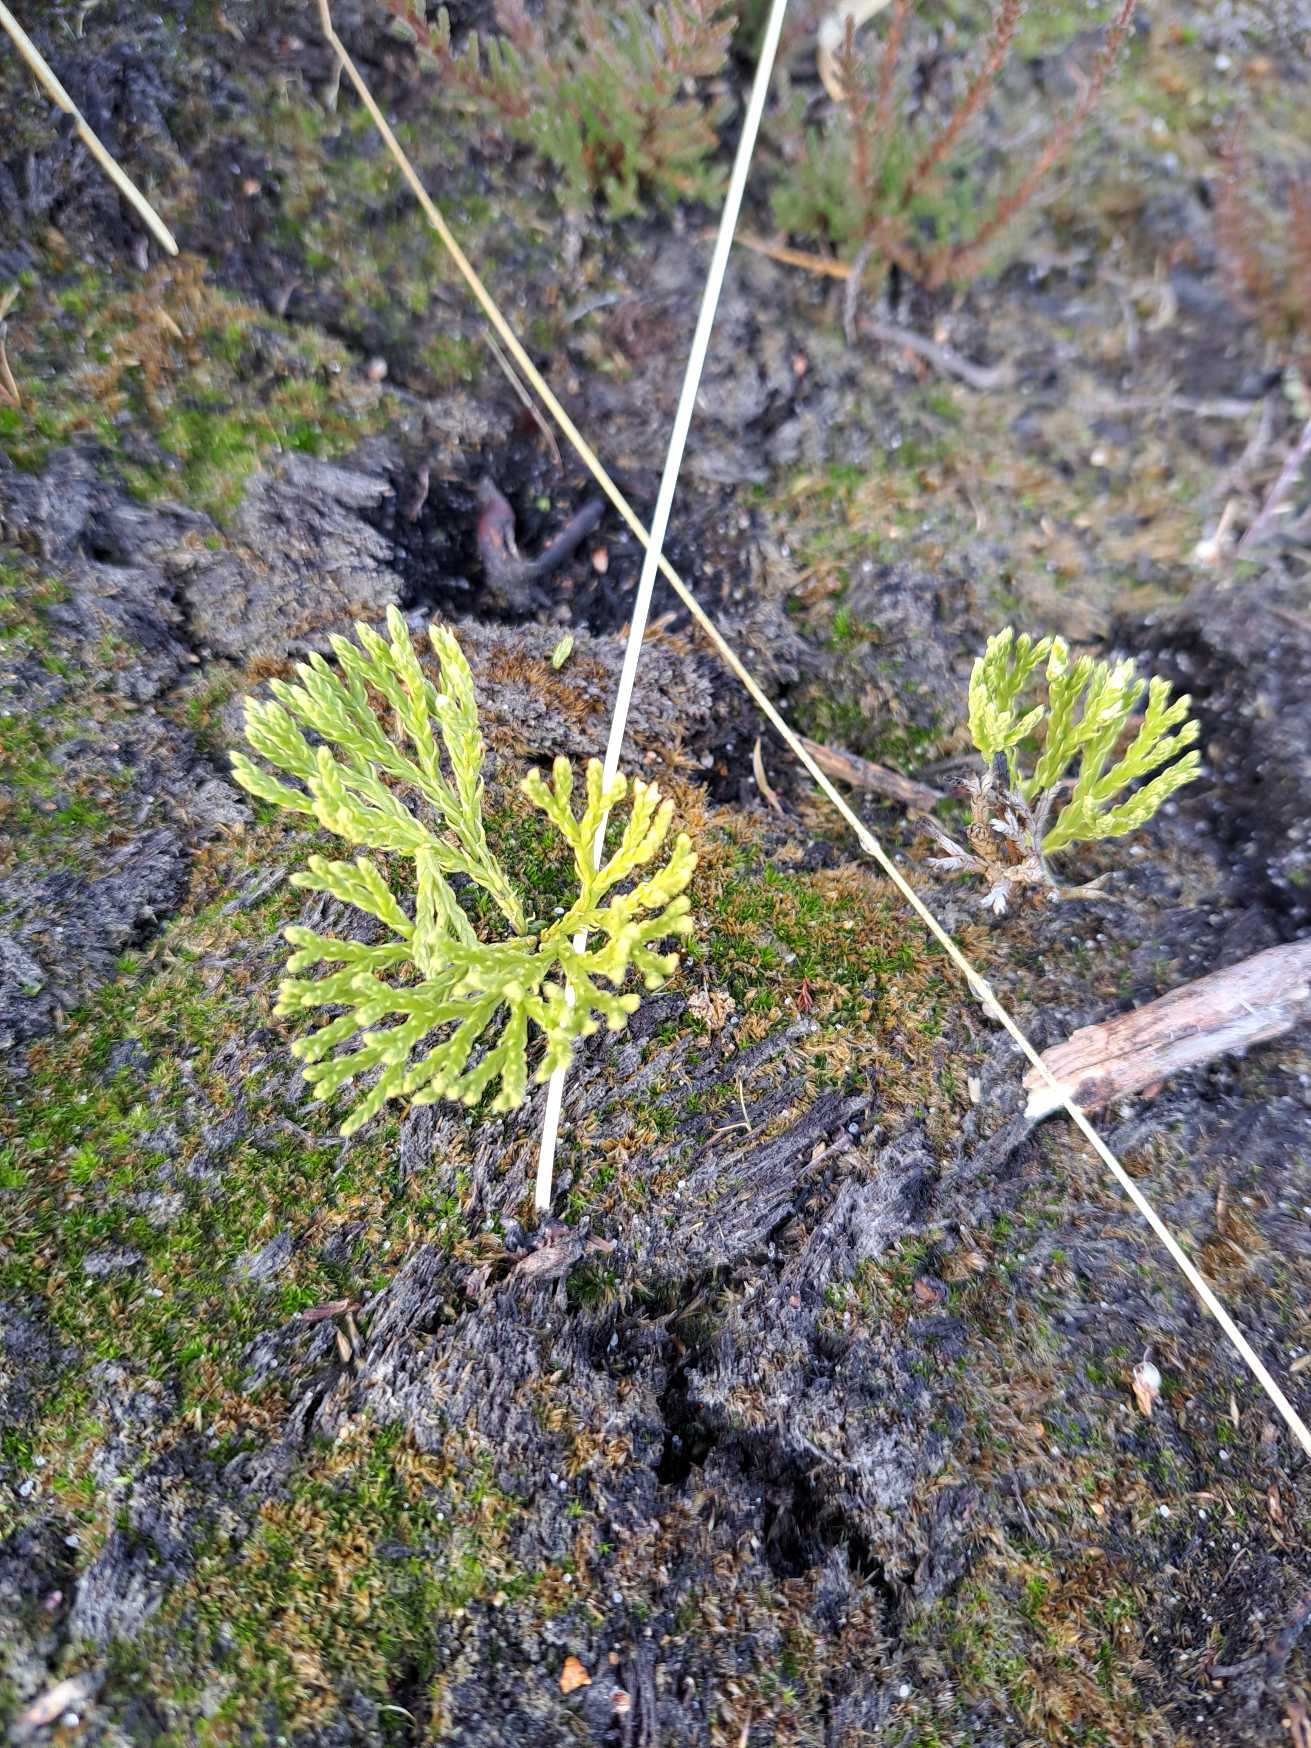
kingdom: Plantae
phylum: Tracheophyta
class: Lycopodiopsida
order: Lycopodiales
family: Lycopodiaceae
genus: Diphasiastrum
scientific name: Diphasiastrum tristachyum
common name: Cypres-ulvefod
